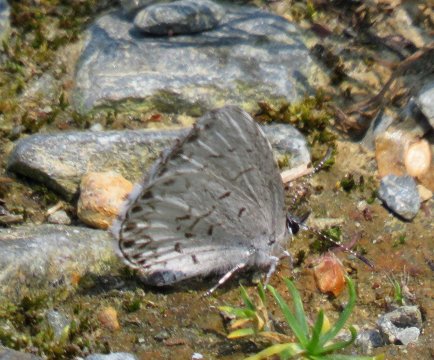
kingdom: Animalia
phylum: Arthropoda
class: Insecta
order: Lepidoptera
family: Lycaenidae
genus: Celastrina
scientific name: Celastrina lucia
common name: Northern Spring Azure
